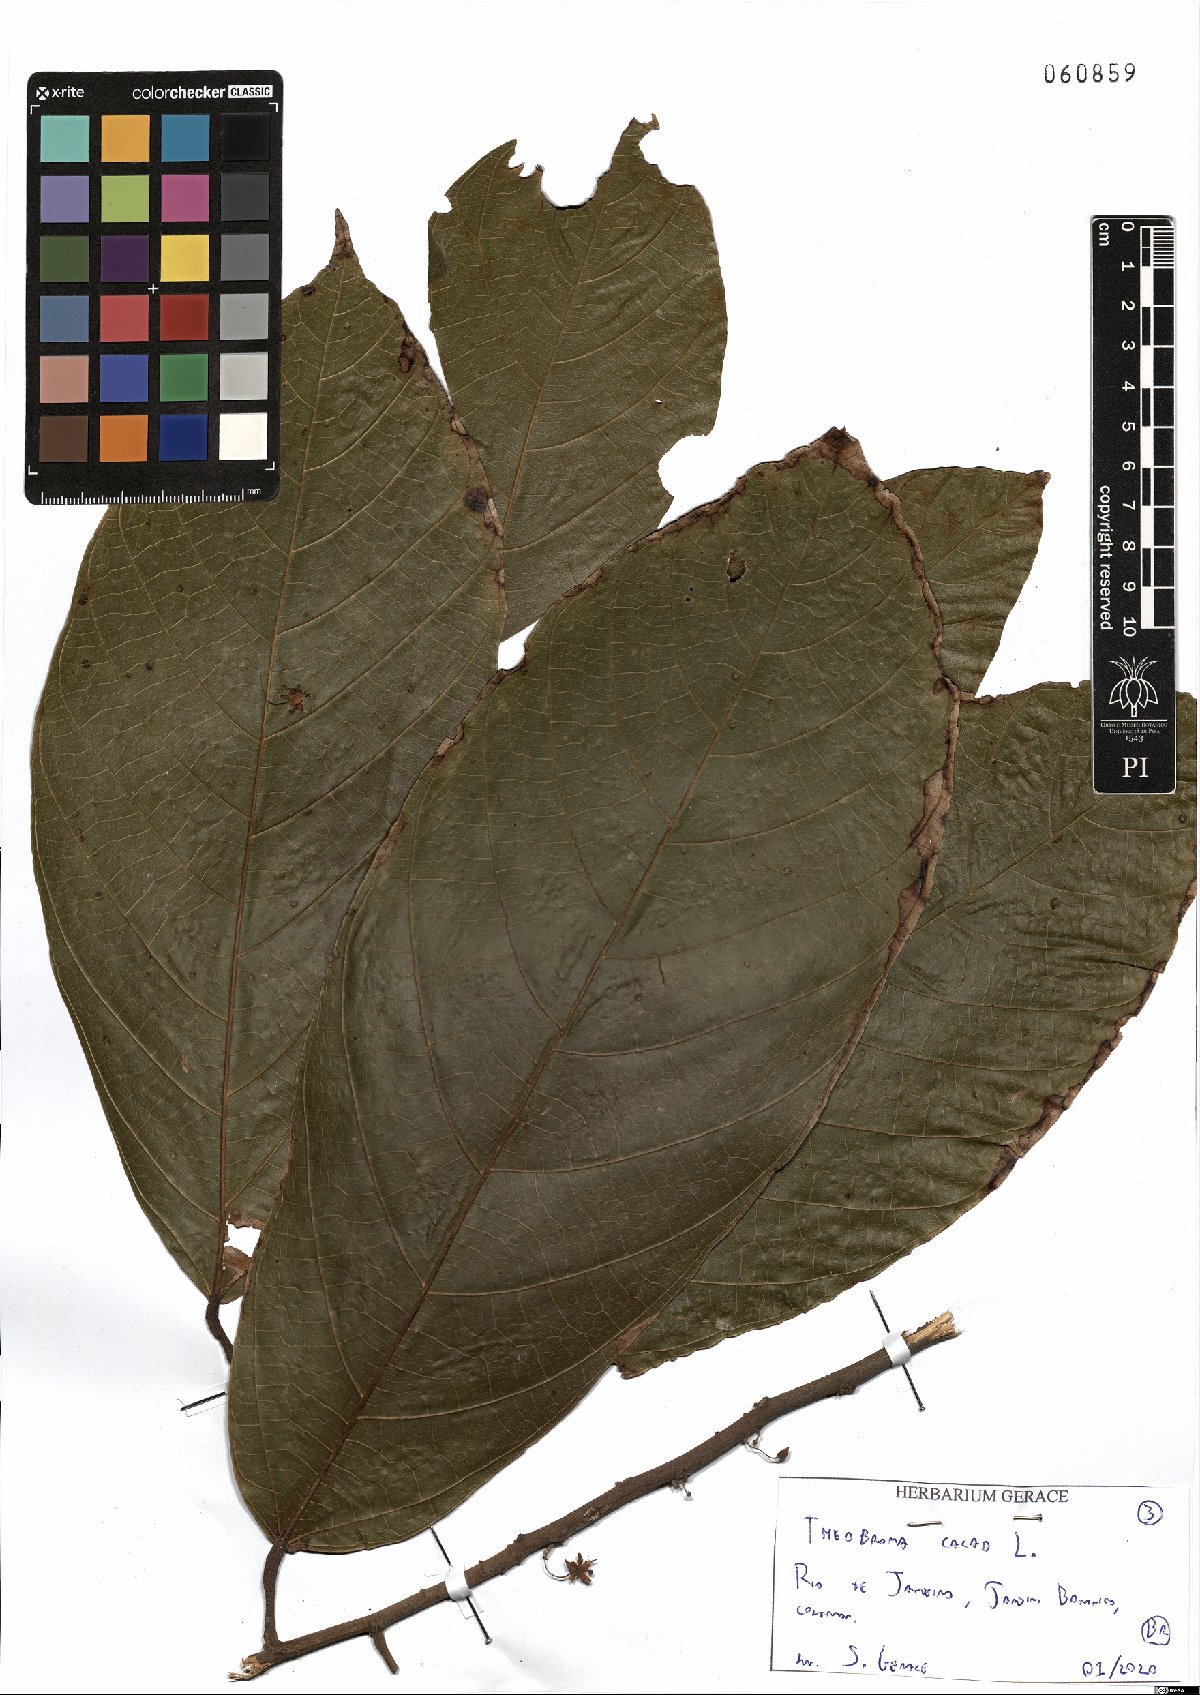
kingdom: Plantae
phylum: Tracheophyta
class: Magnoliopsida
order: Malvales
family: Malvaceae
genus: Theobroma
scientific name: Theobroma cacao
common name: Cocoa
